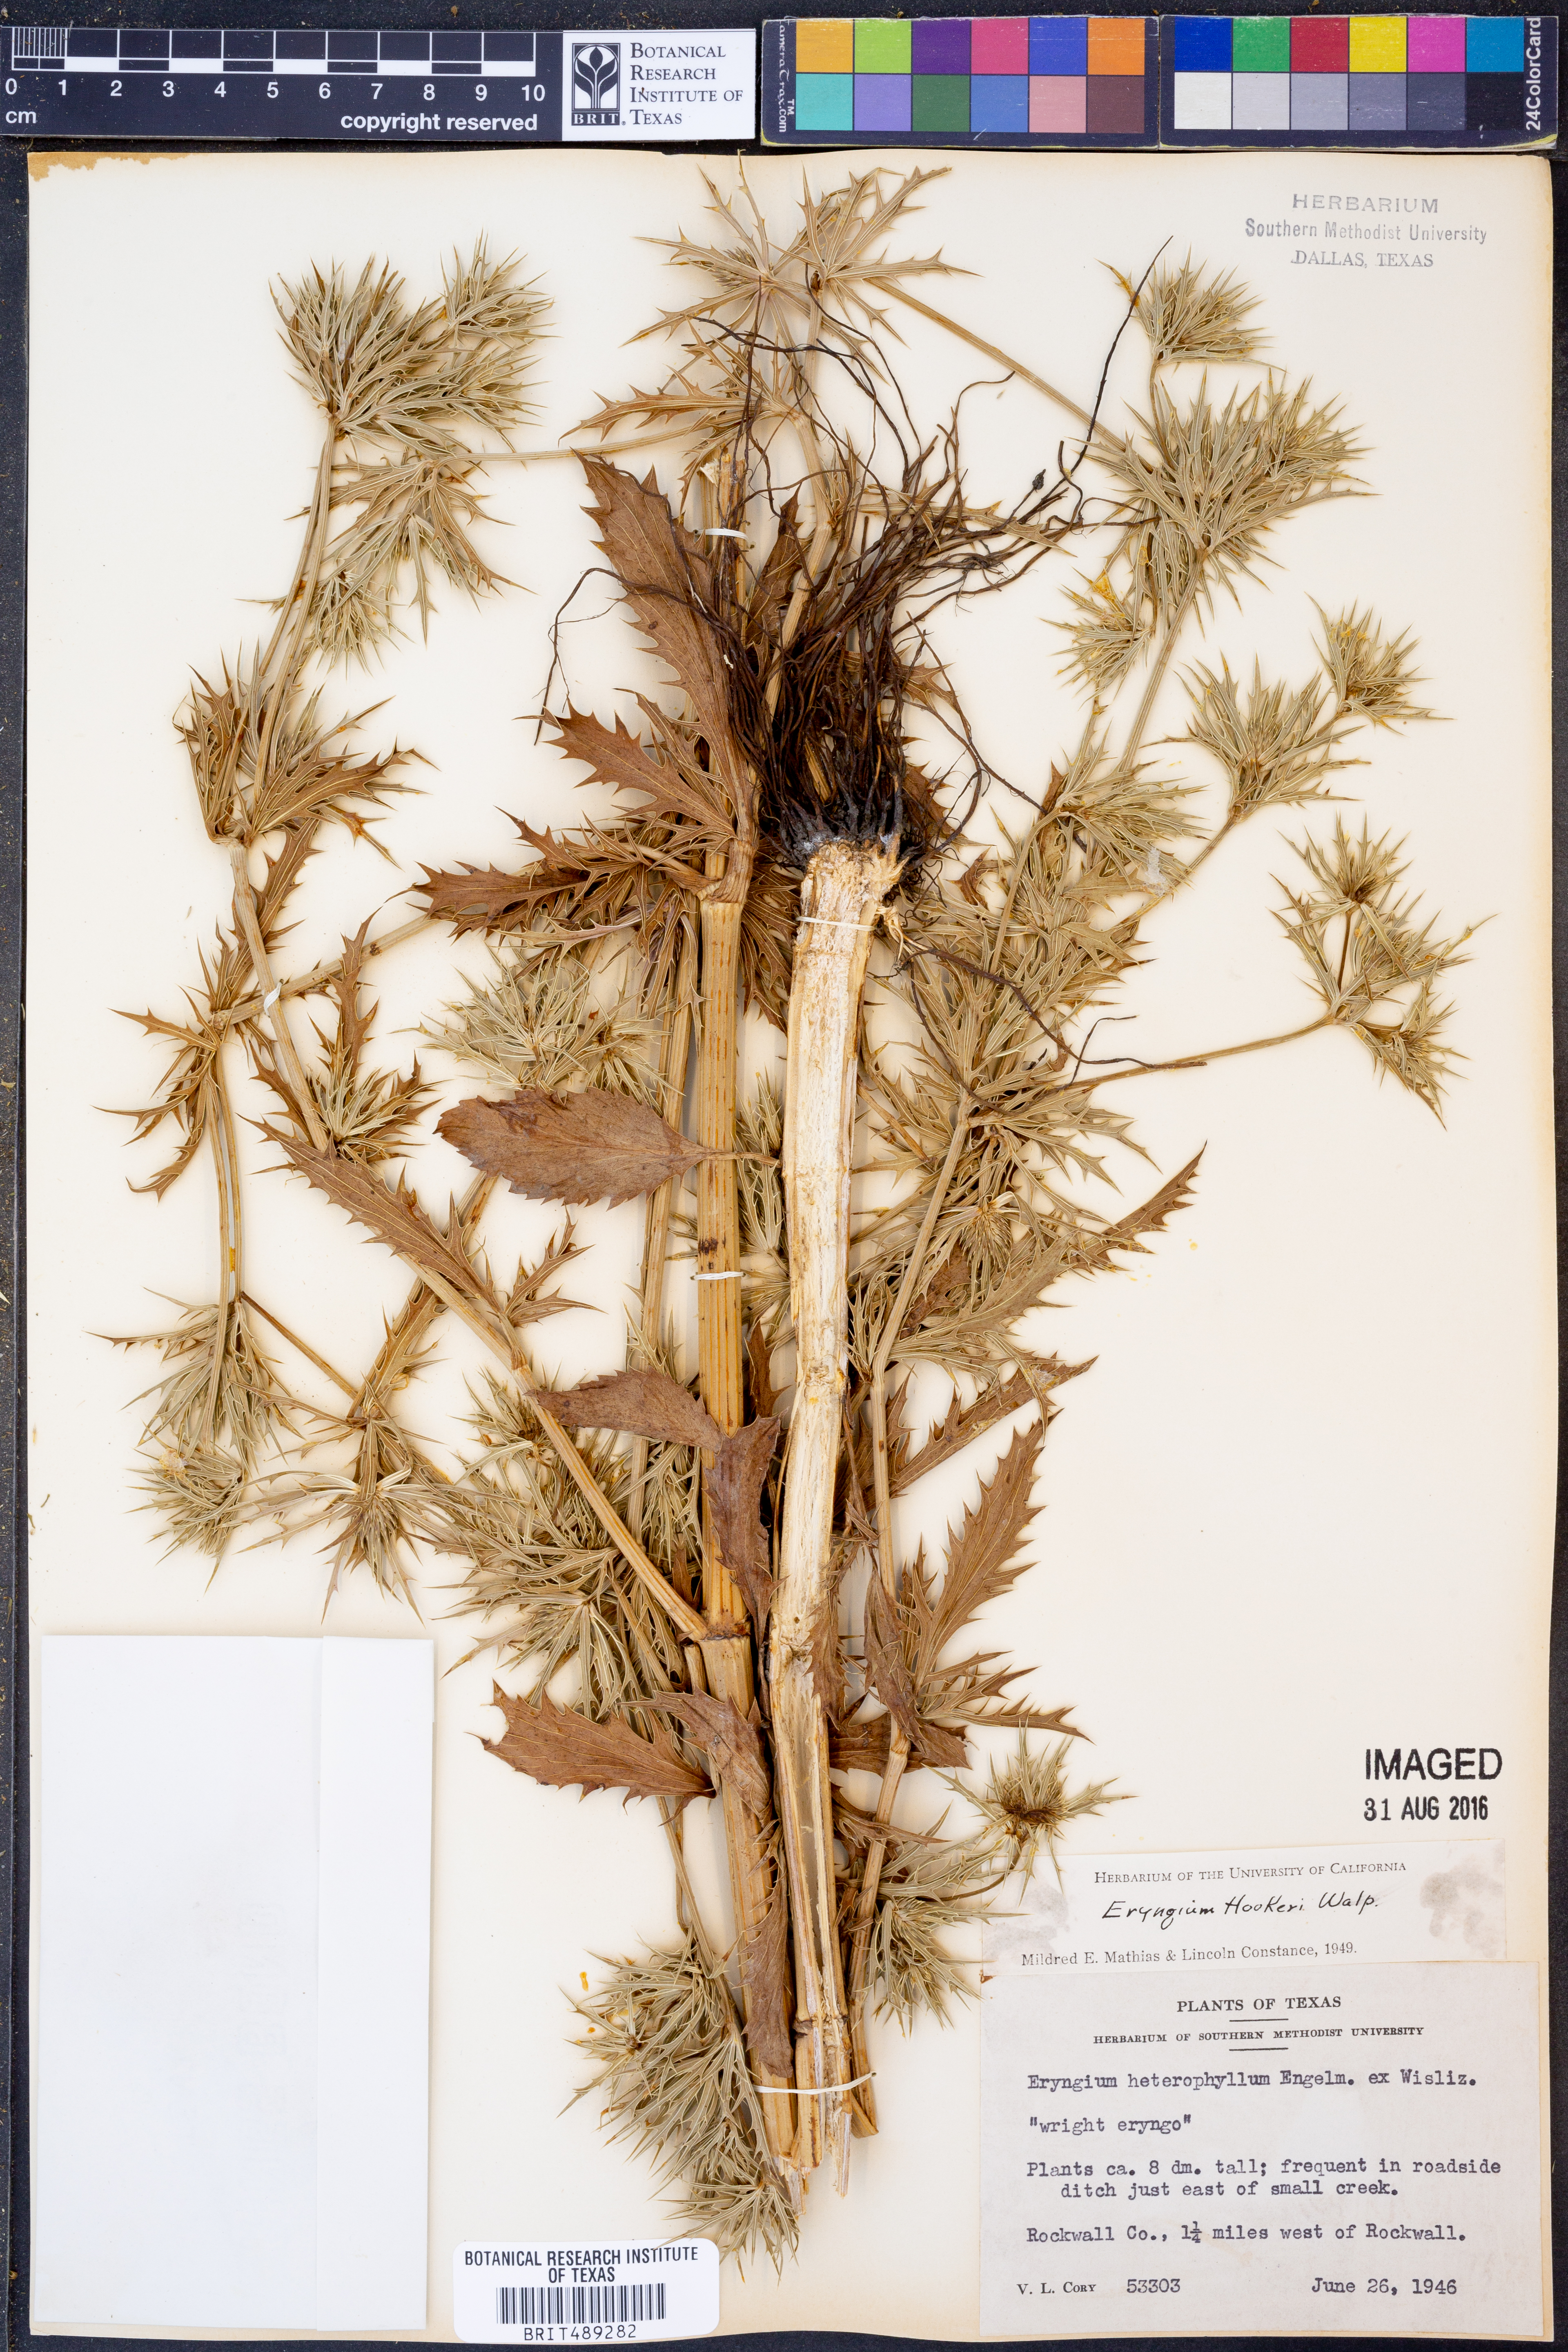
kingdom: Plantae
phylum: Tracheophyta
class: Magnoliopsida
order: Apiales
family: Apiaceae
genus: Eryngium
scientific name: Eryngium hookeri
